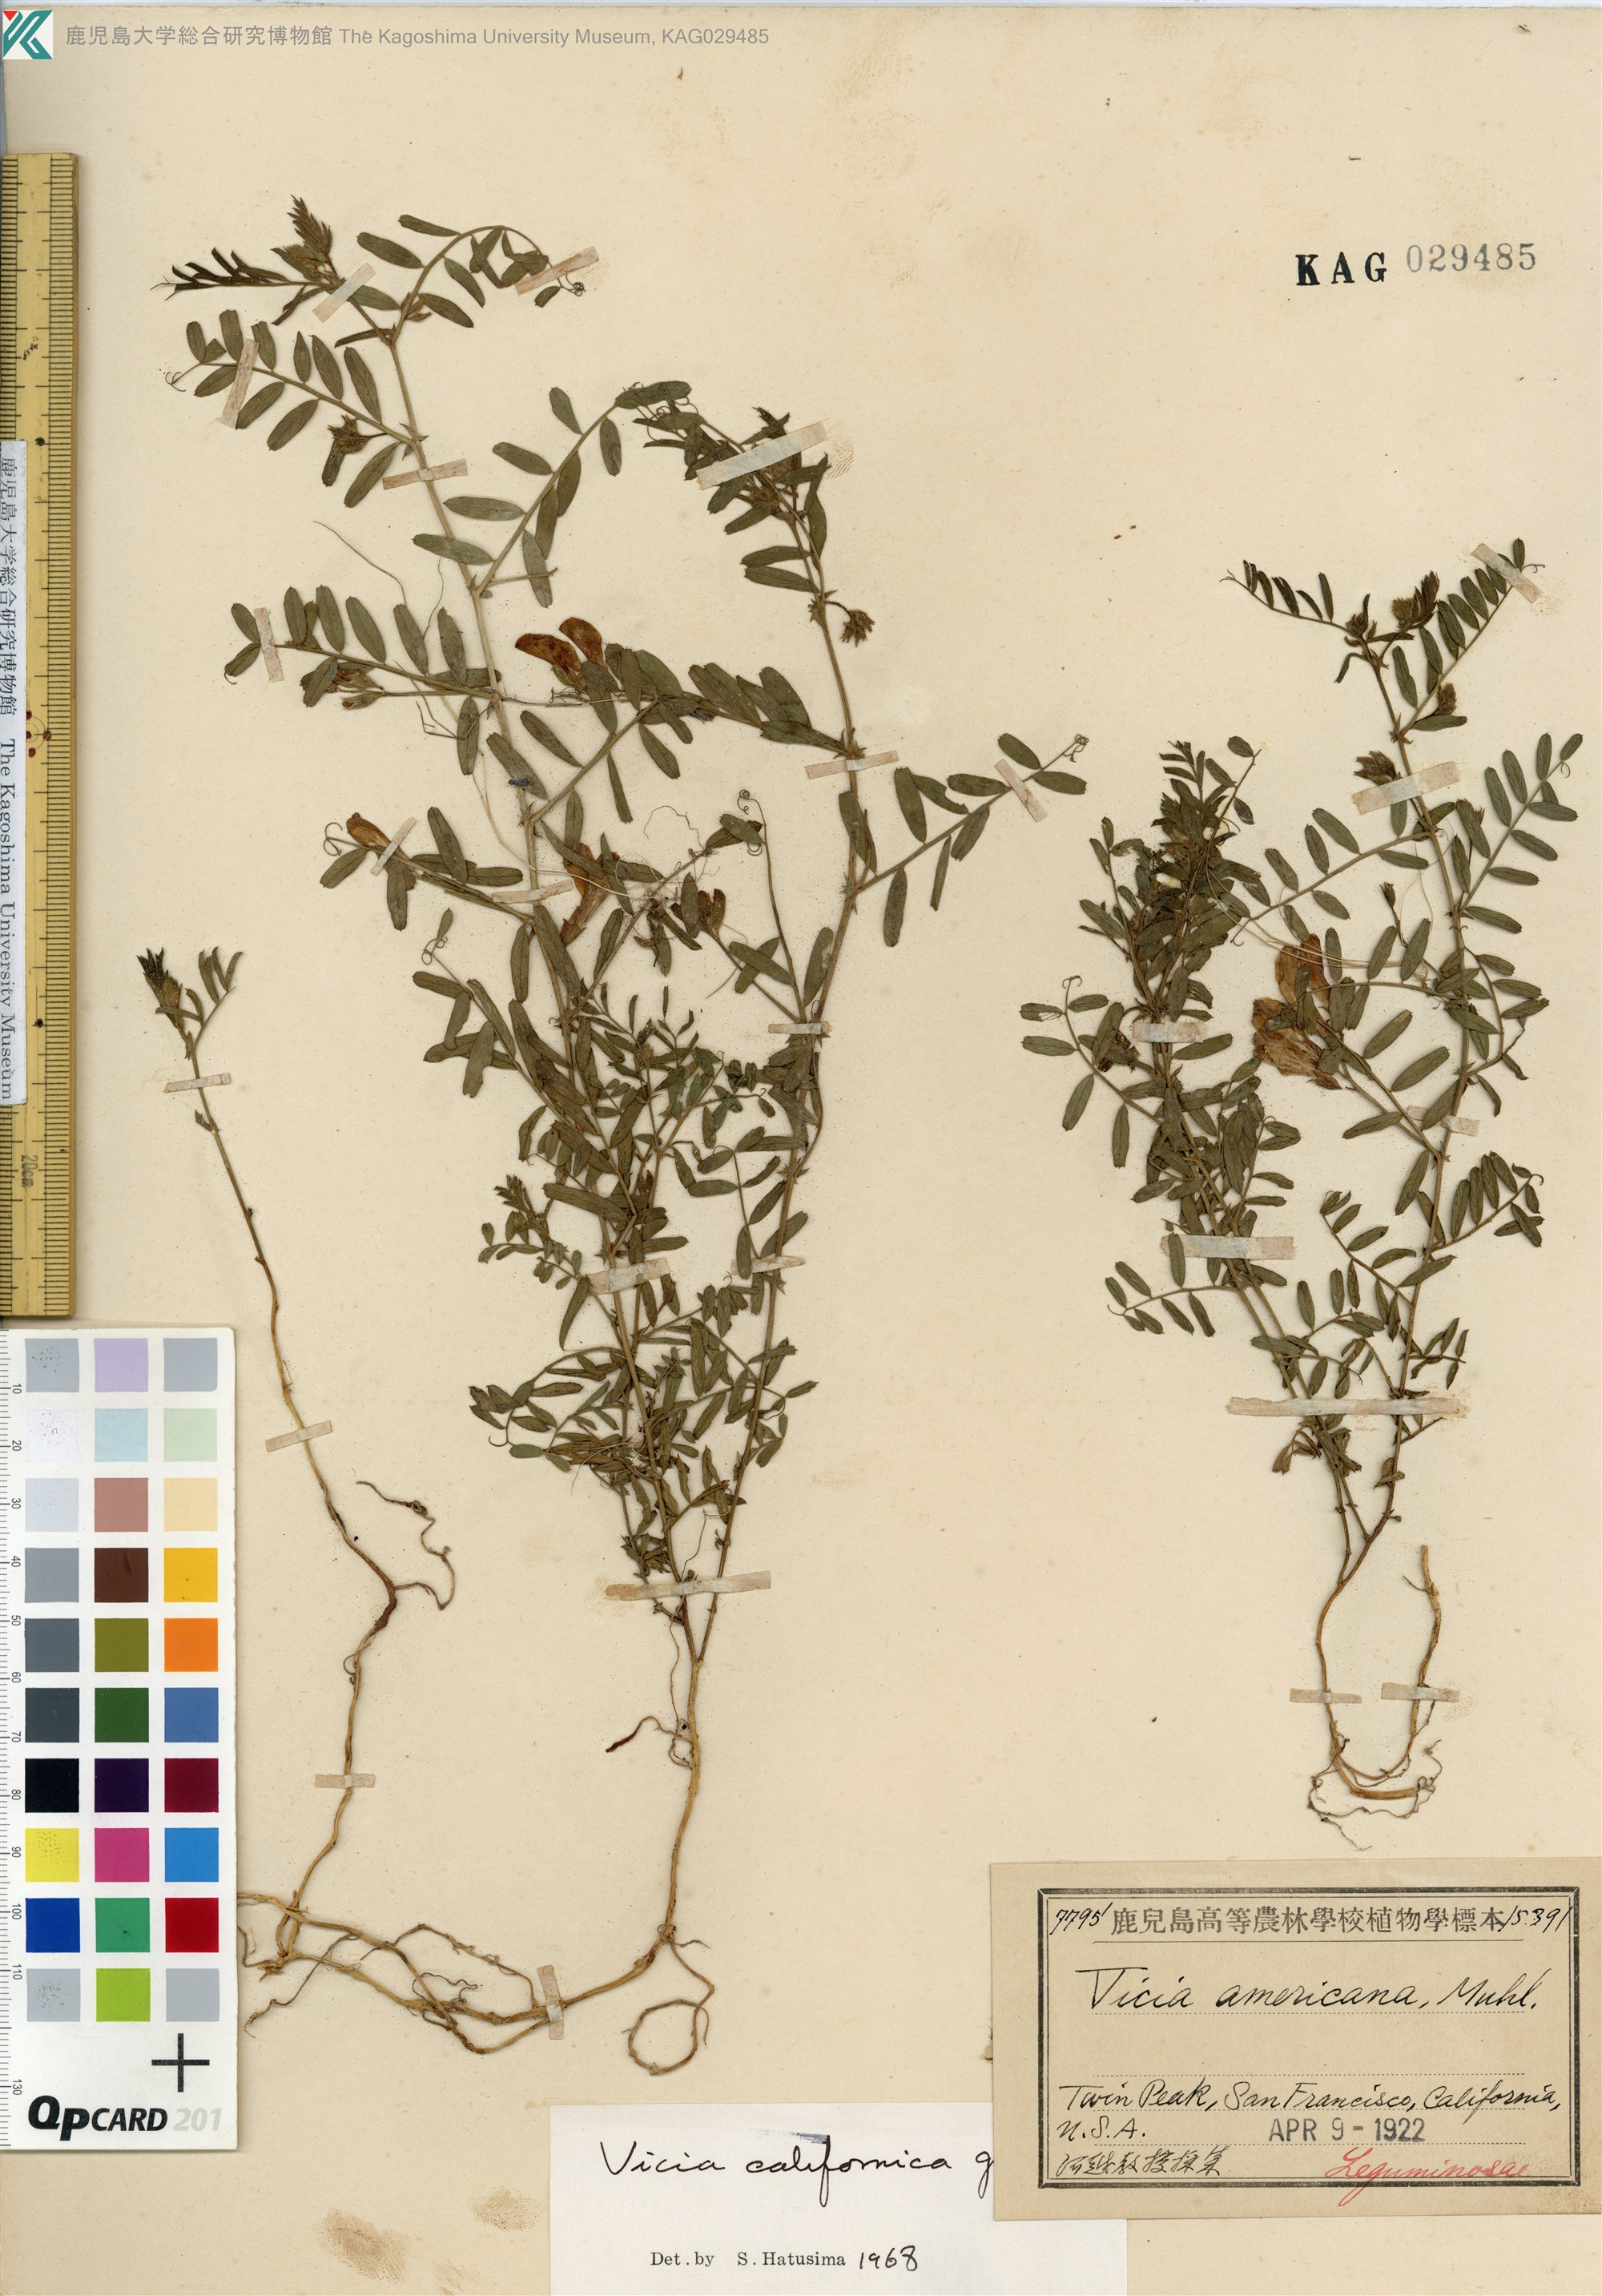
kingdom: Plantae
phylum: Tracheophyta
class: Magnoliopsida
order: Fabales
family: Fabaceae
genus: Vicia
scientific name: Vicia americana
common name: American vetch
